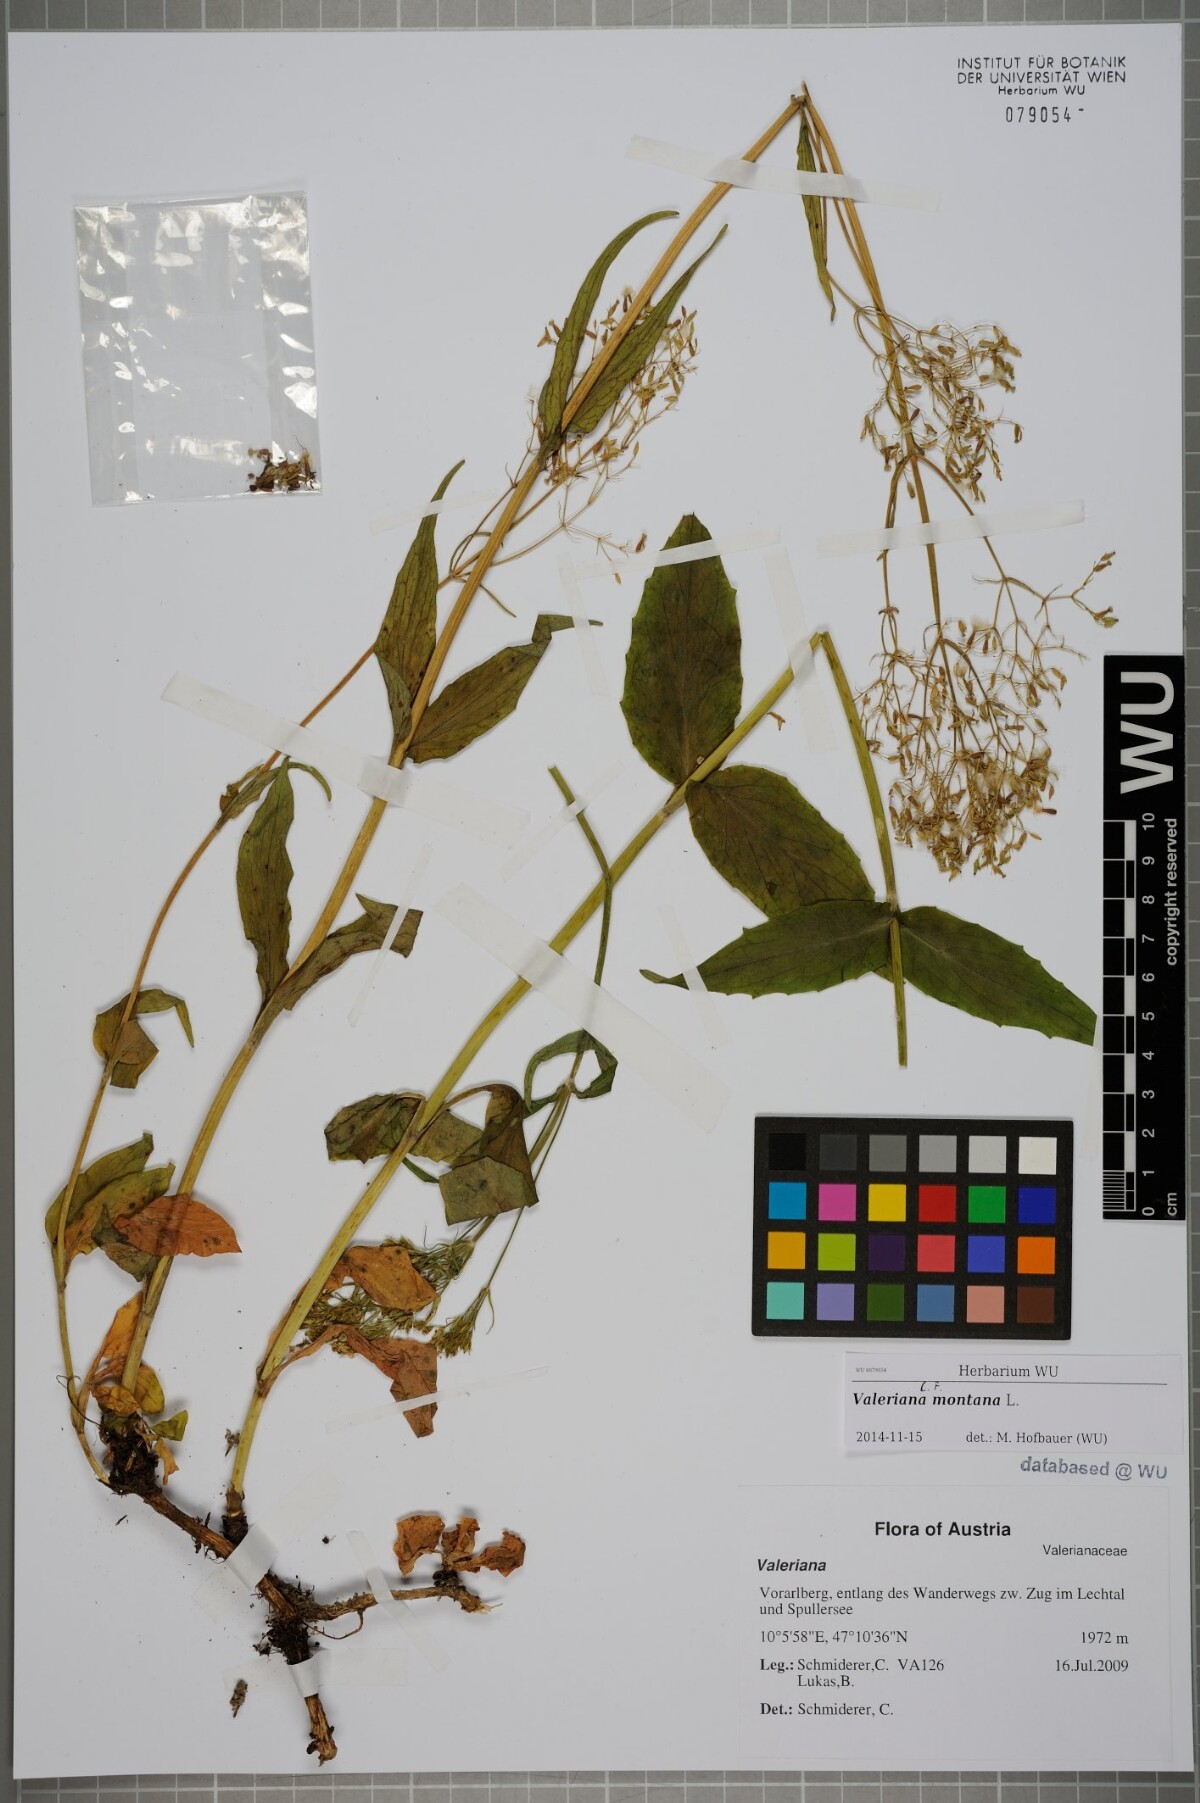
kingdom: Plantae
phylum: Tracheophyta
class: Magnoliopsida
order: Dipsacales
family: Caprifoliaceae
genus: Valeriana
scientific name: Valeriana montana
